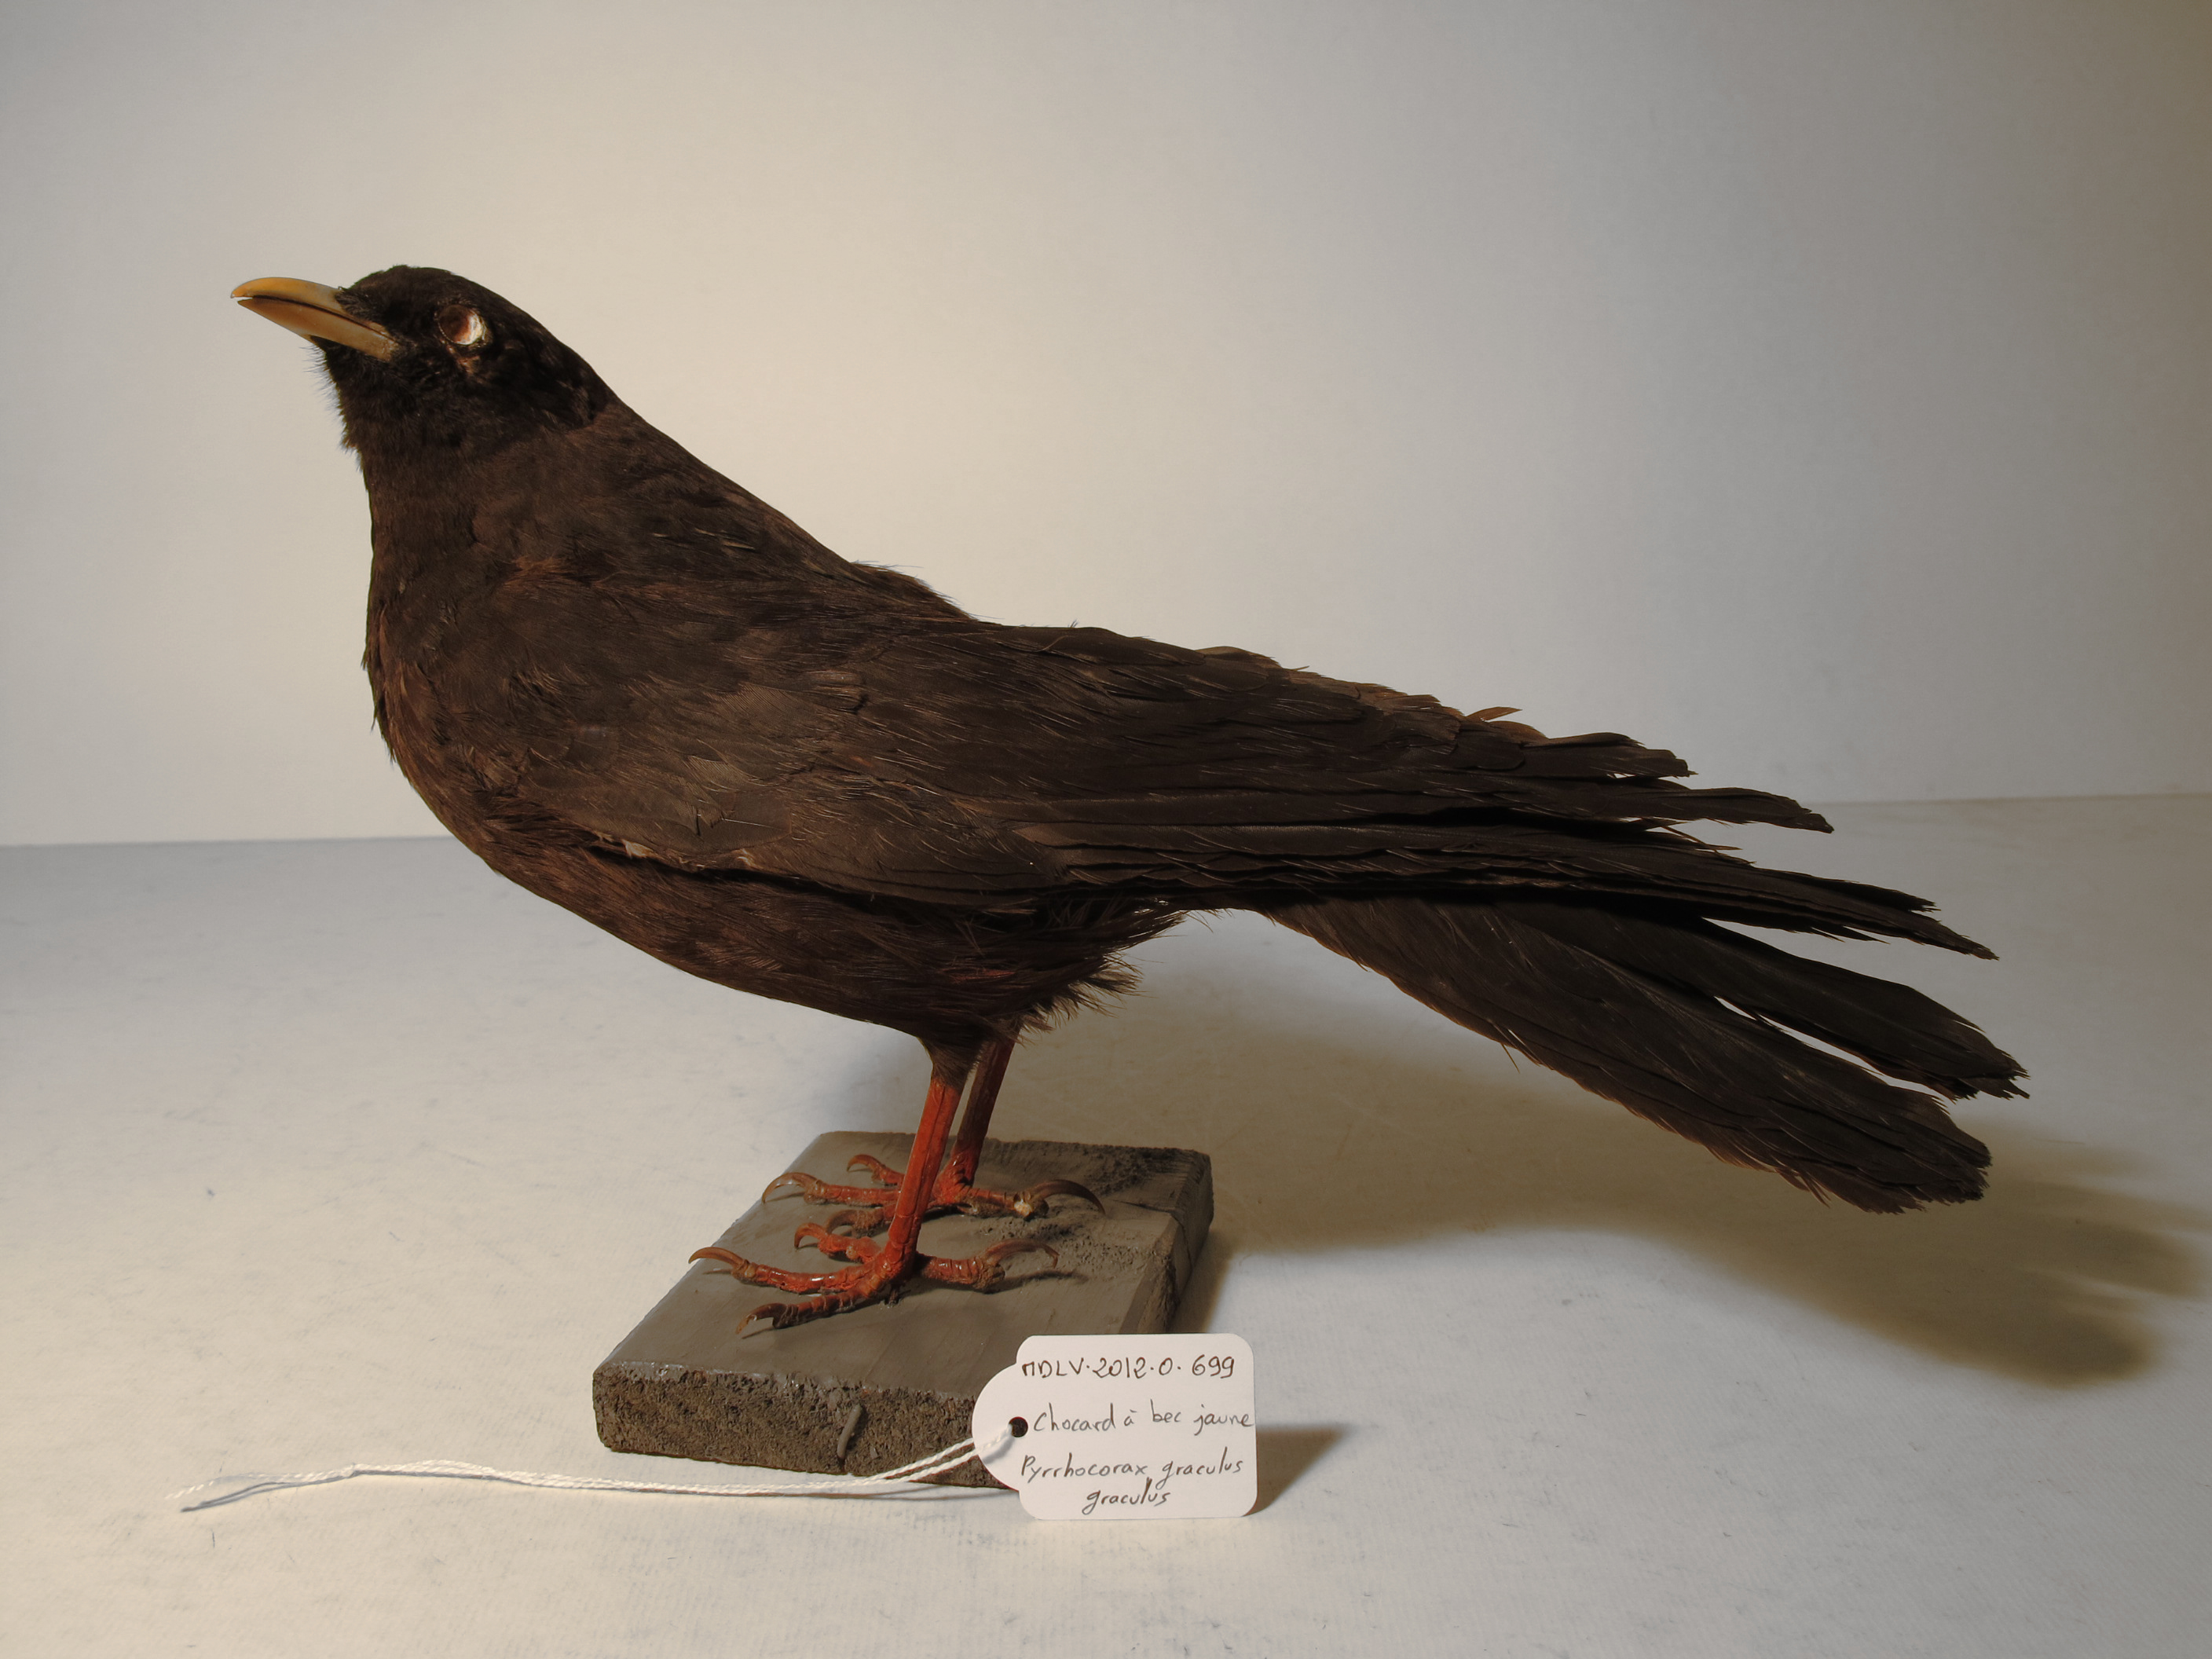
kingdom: Animalia
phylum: Chordata
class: Aves
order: Passeriformes
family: Corvidae
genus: Pyrrhocorax
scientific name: Pyrrhocorax graculus
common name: Yellow-billed Chough
